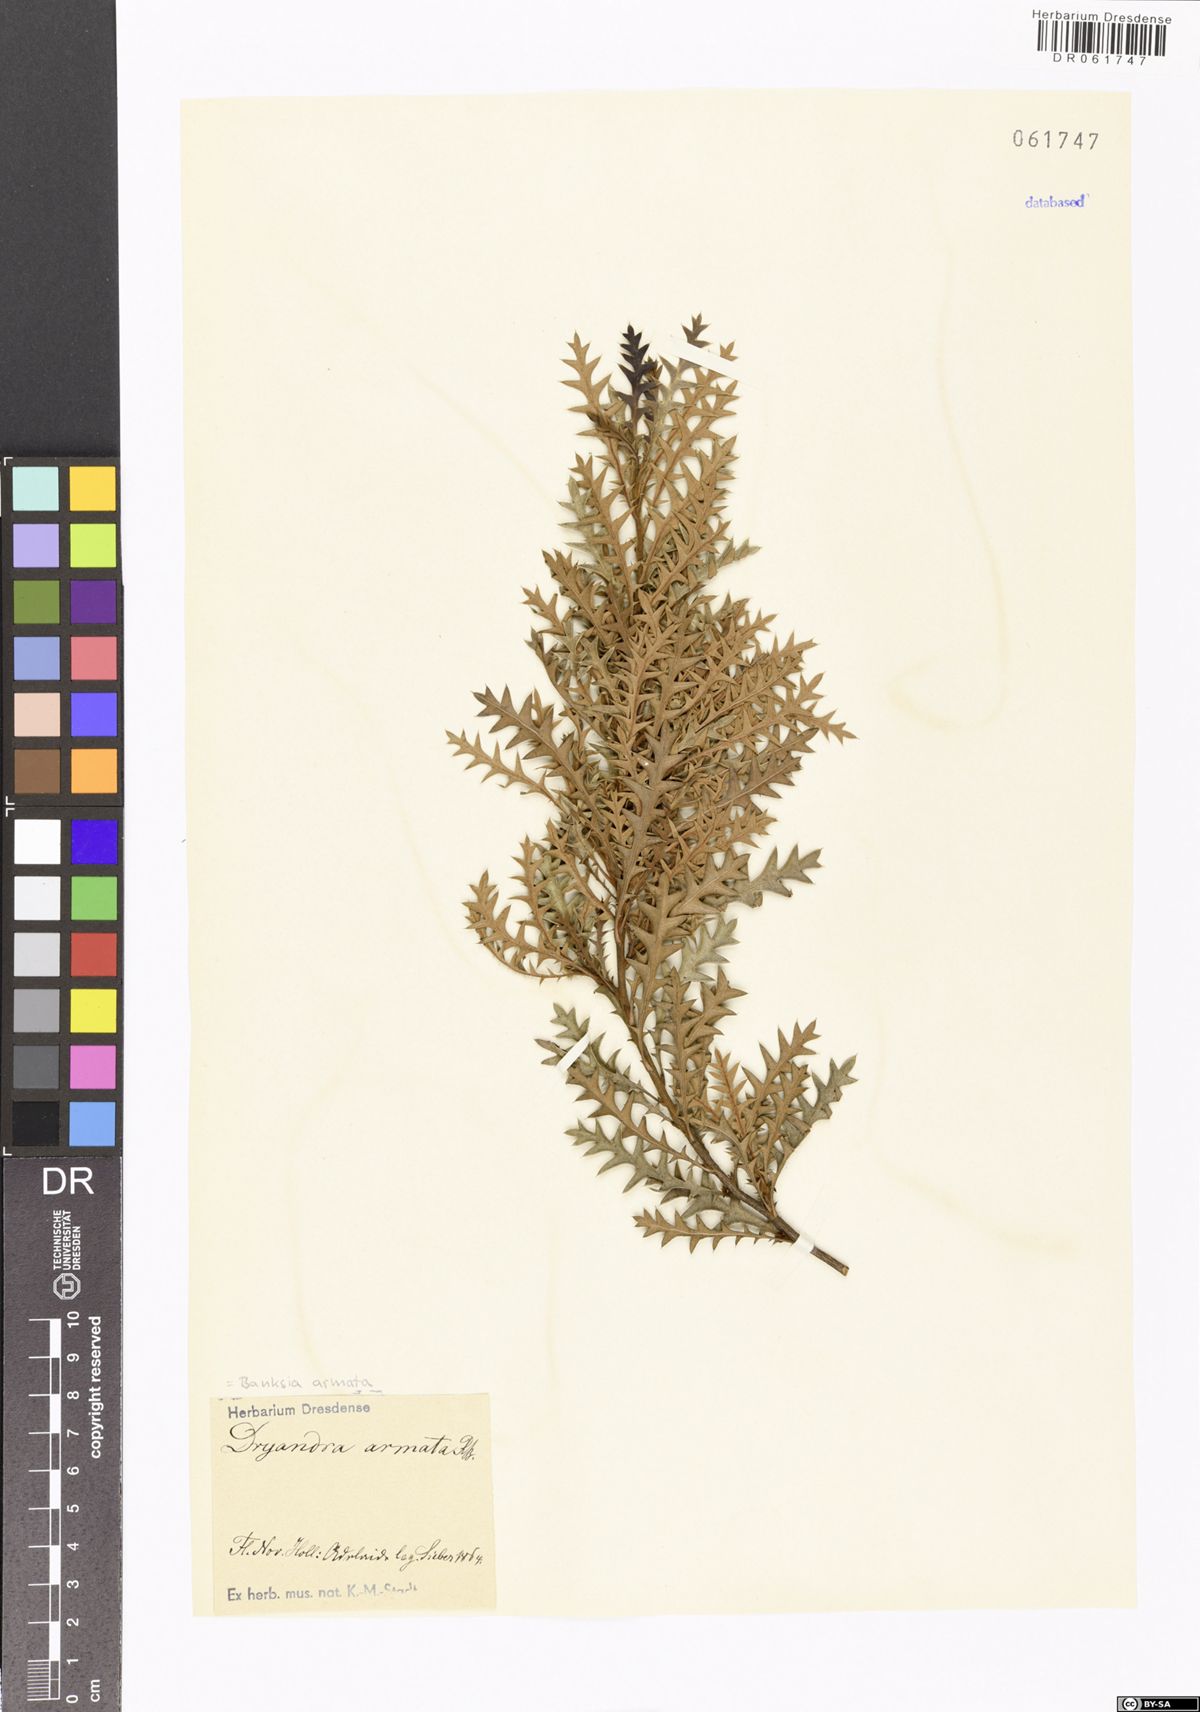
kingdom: Plantae
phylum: Tracheophyta
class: Magnoliopsida
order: Proteales
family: Proteaceae
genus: Banksia
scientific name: Banksia armata
